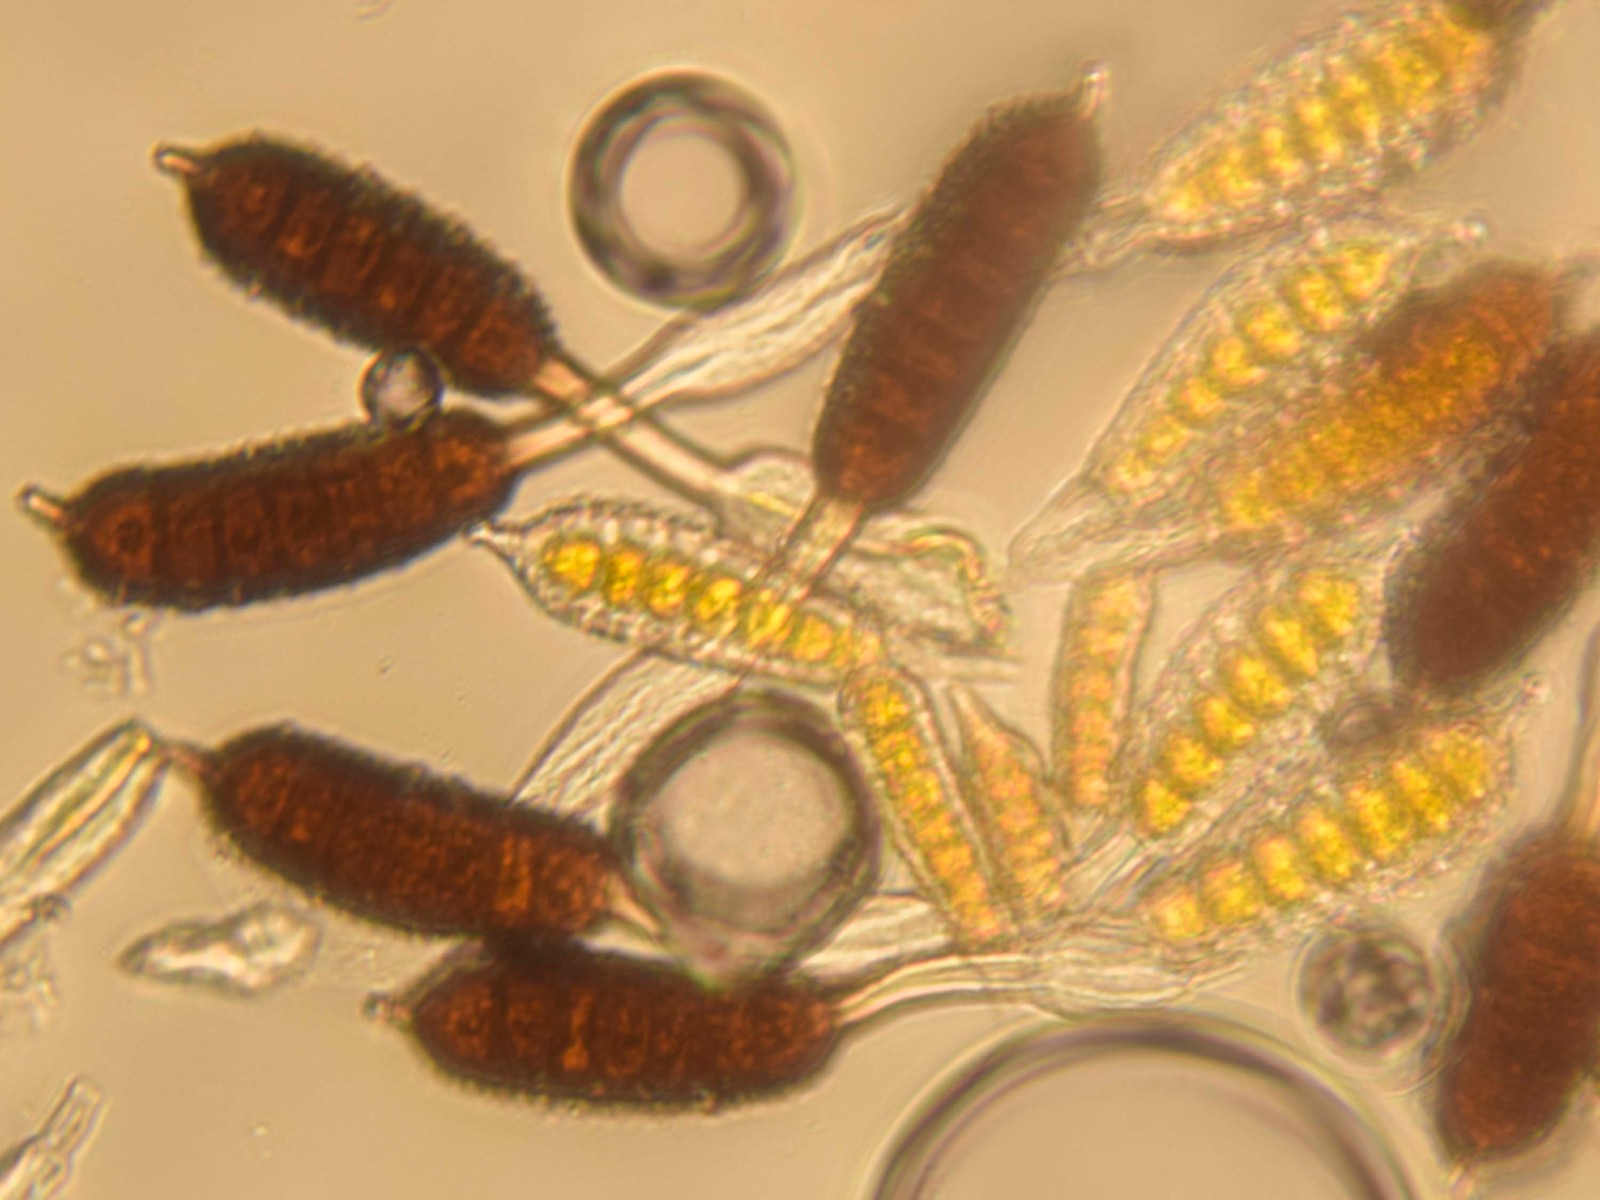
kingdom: Fungi
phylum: Basidiomycota
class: Pucciniomycetes
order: Pucciniales
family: Phragmidiaceae
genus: Phragmidium
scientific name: Phragmidium mucronatum
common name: rose-flercellerust
